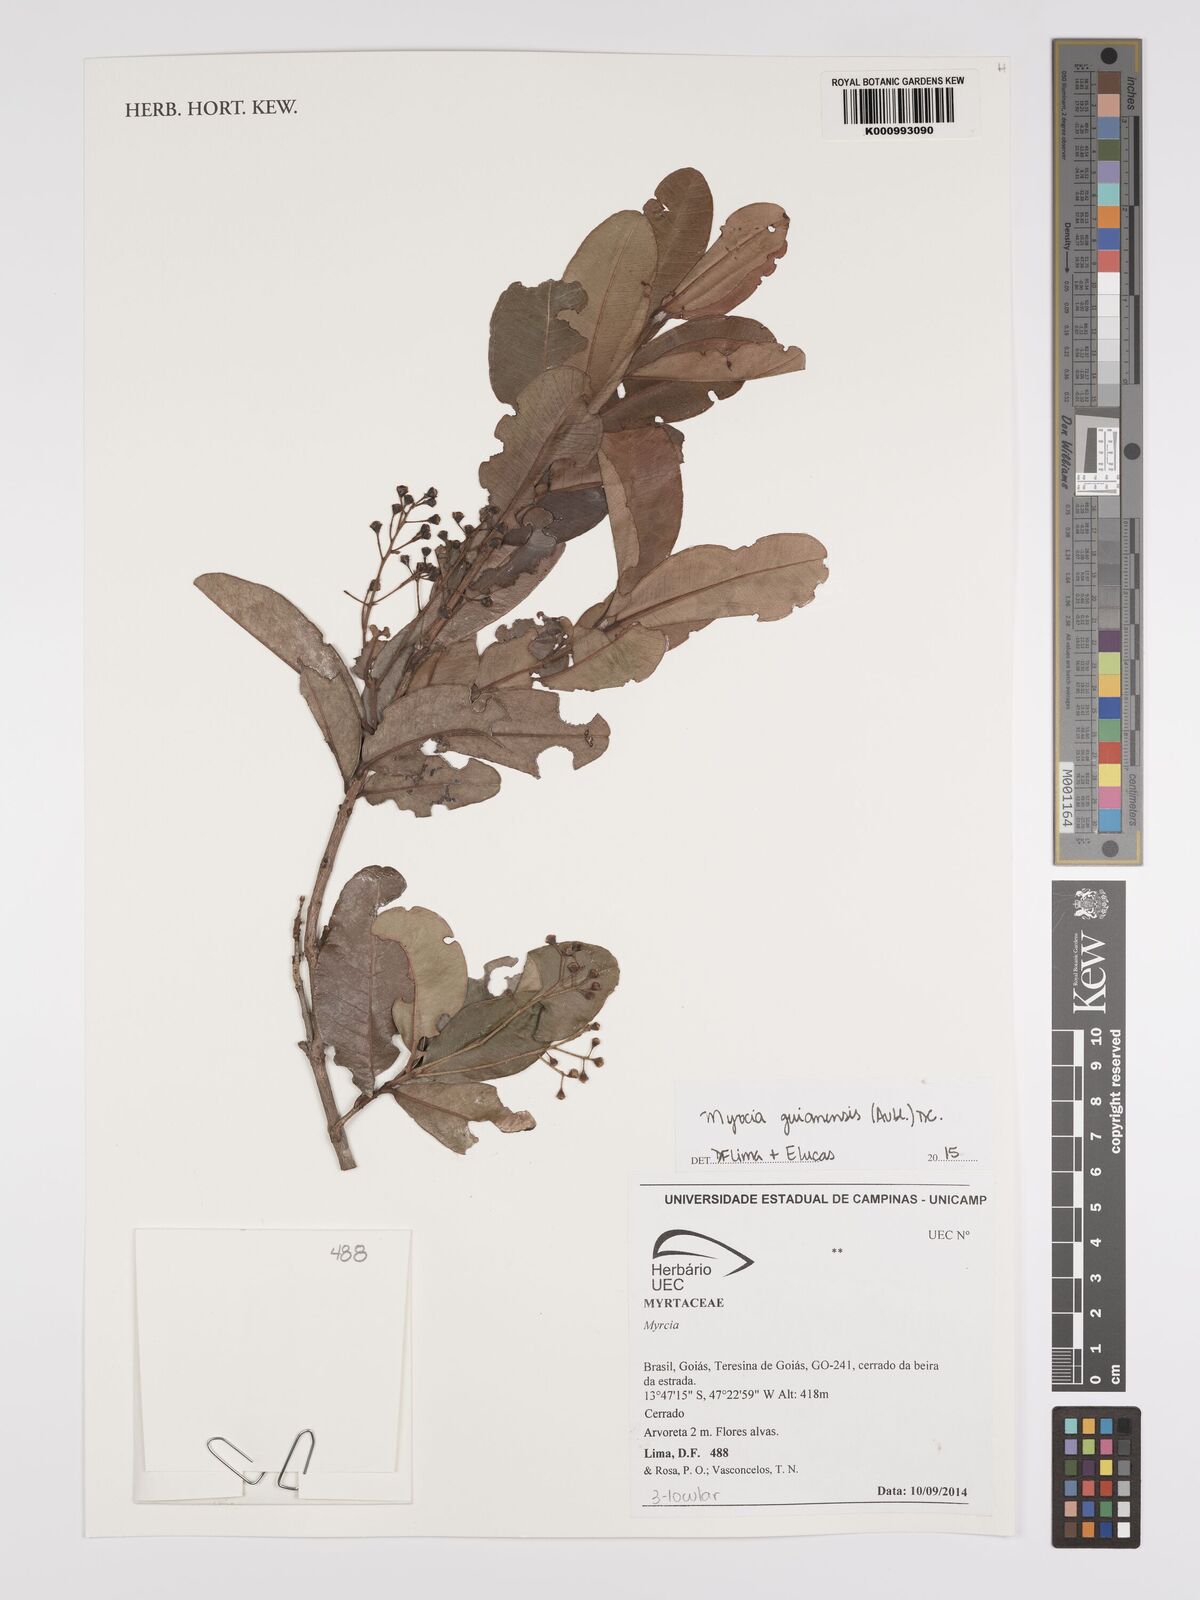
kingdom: Plantae
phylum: Tracheophyta
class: Magnoliopsida
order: Myrtales
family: Myrtaceae
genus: Myrcia
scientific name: Myrcia guianensis
